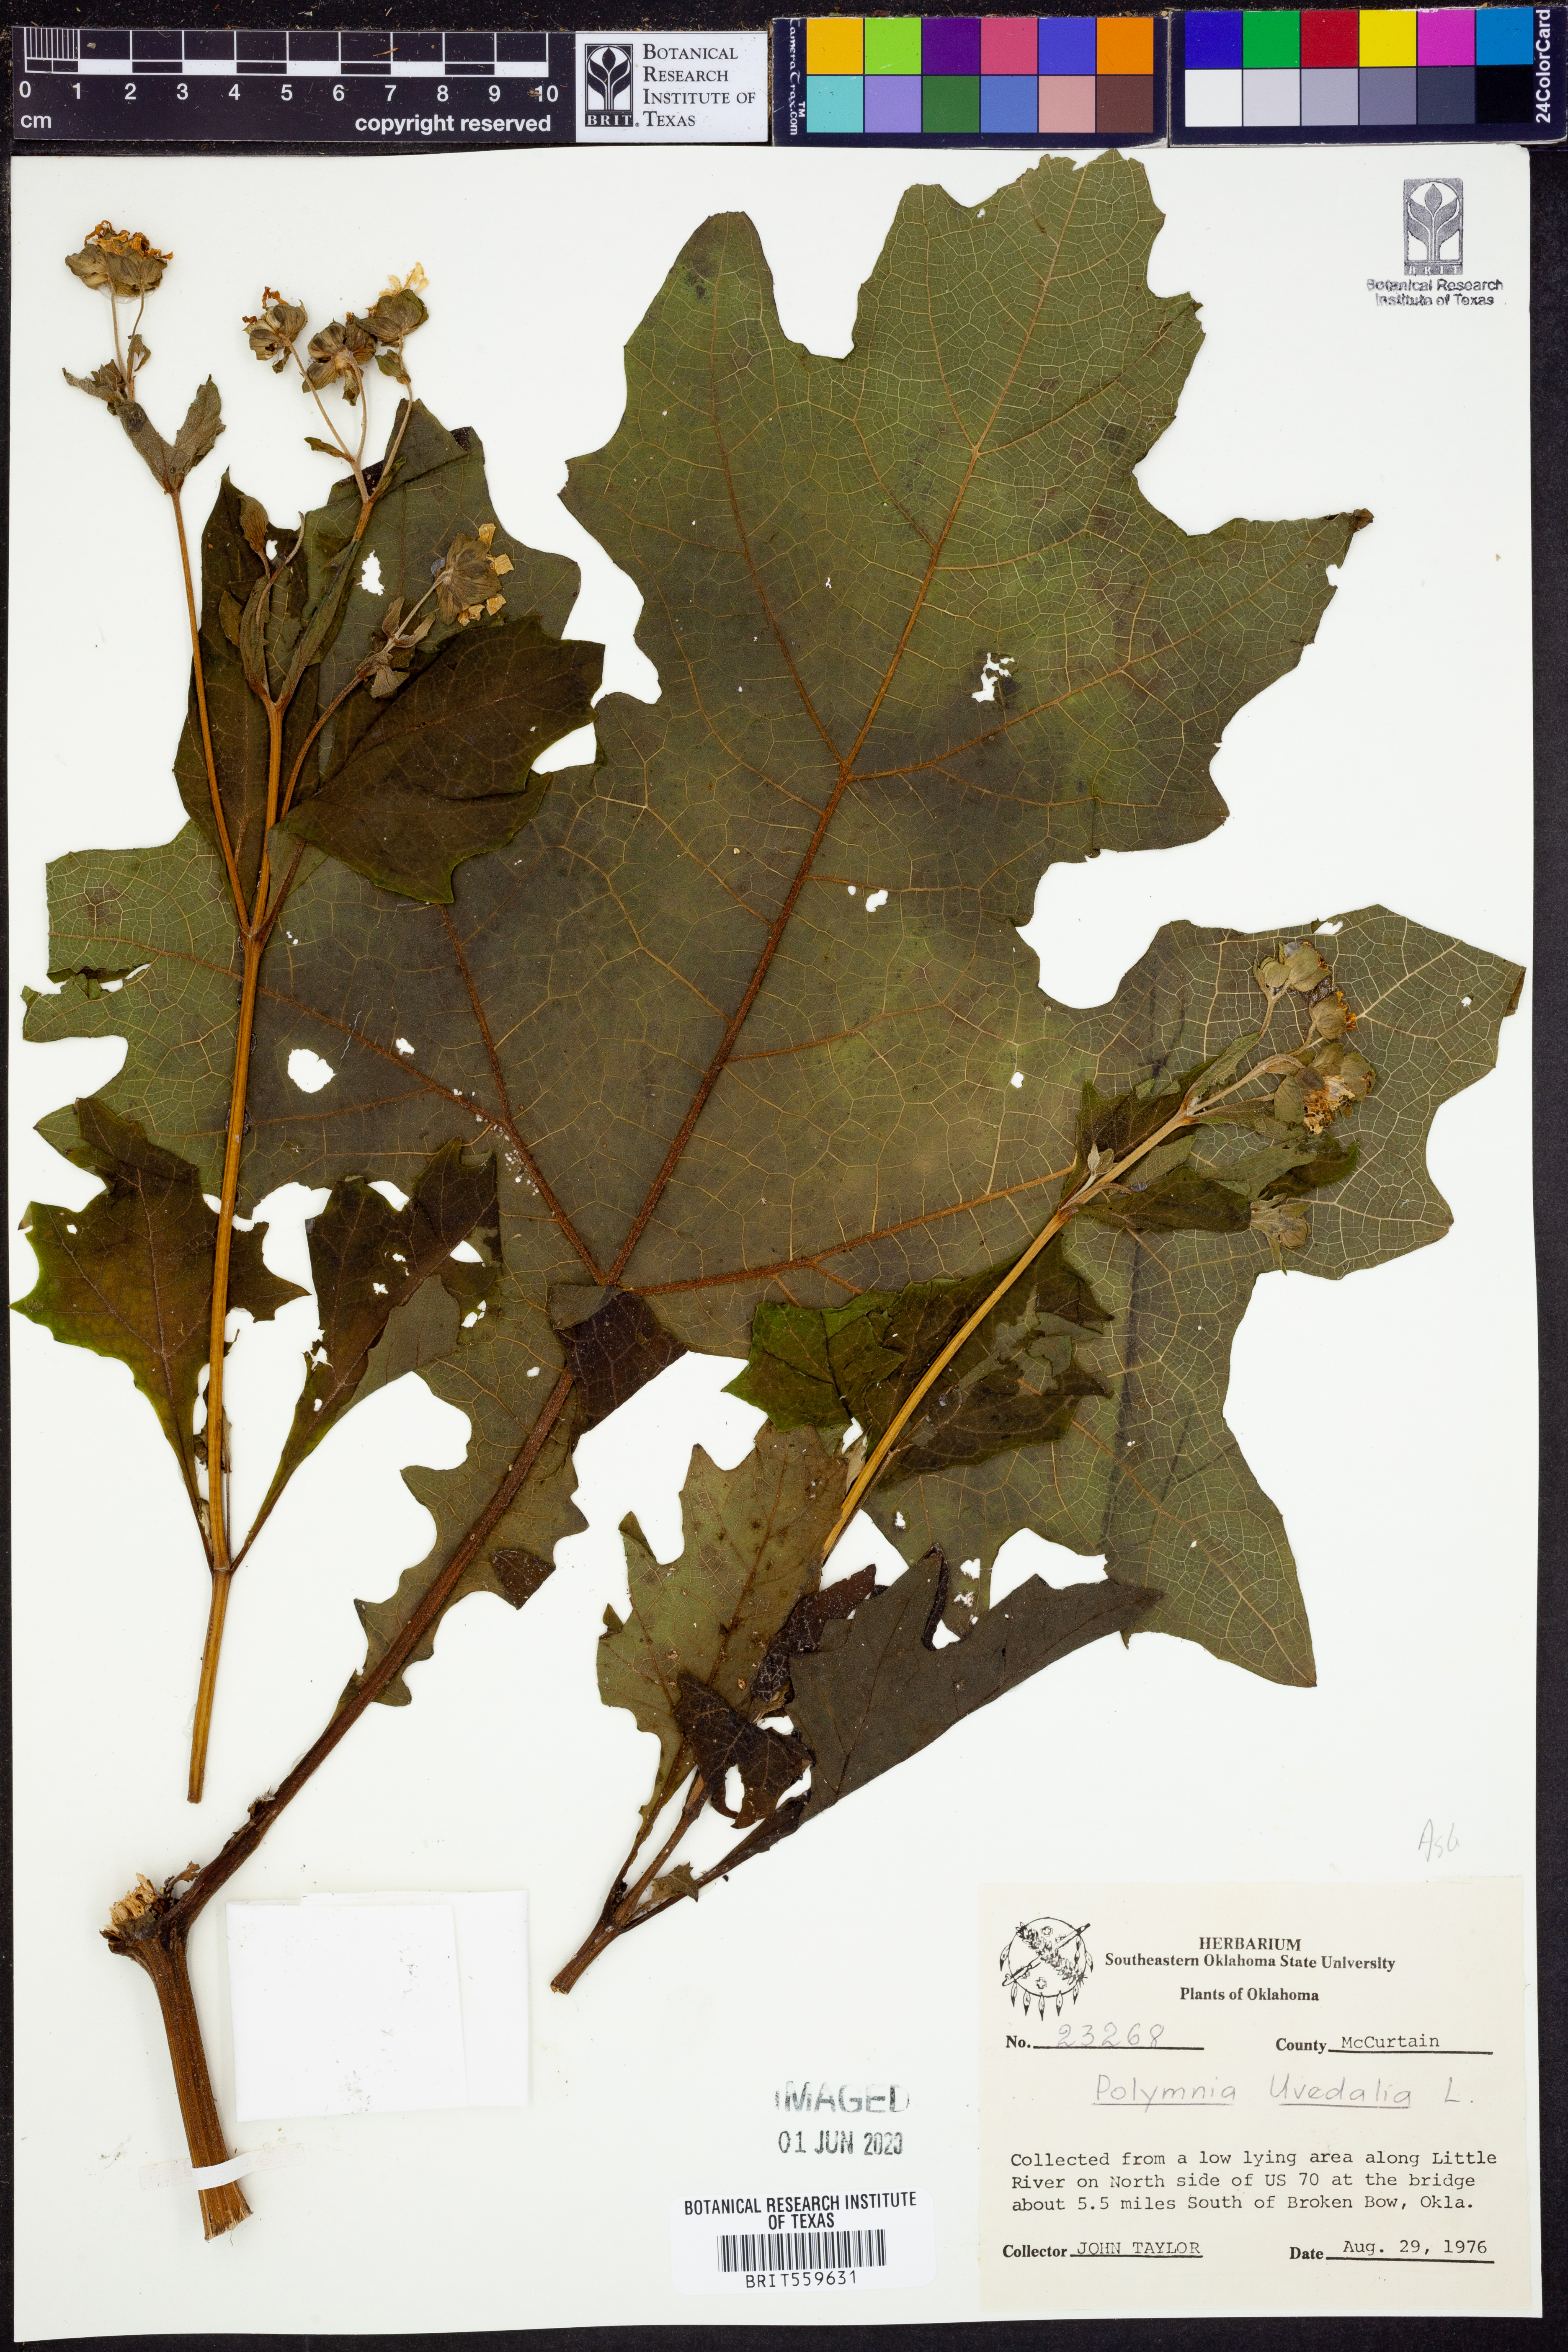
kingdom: Plantae
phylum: Tracheophyta
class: Magnoliopsida
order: Asterales
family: Asteraceae
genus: Smallanthus
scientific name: Smallanthus uvedalia
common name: Bear's-foot
